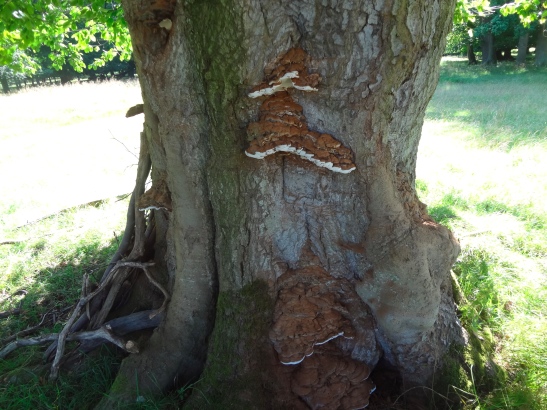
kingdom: Fungi
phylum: Basidiomycota
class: Agaricomycetes
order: Polyporales
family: Polyporaceae
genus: Ganoderma
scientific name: Ganoderma pfeifferi
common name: kobberrød lakporesvamp
